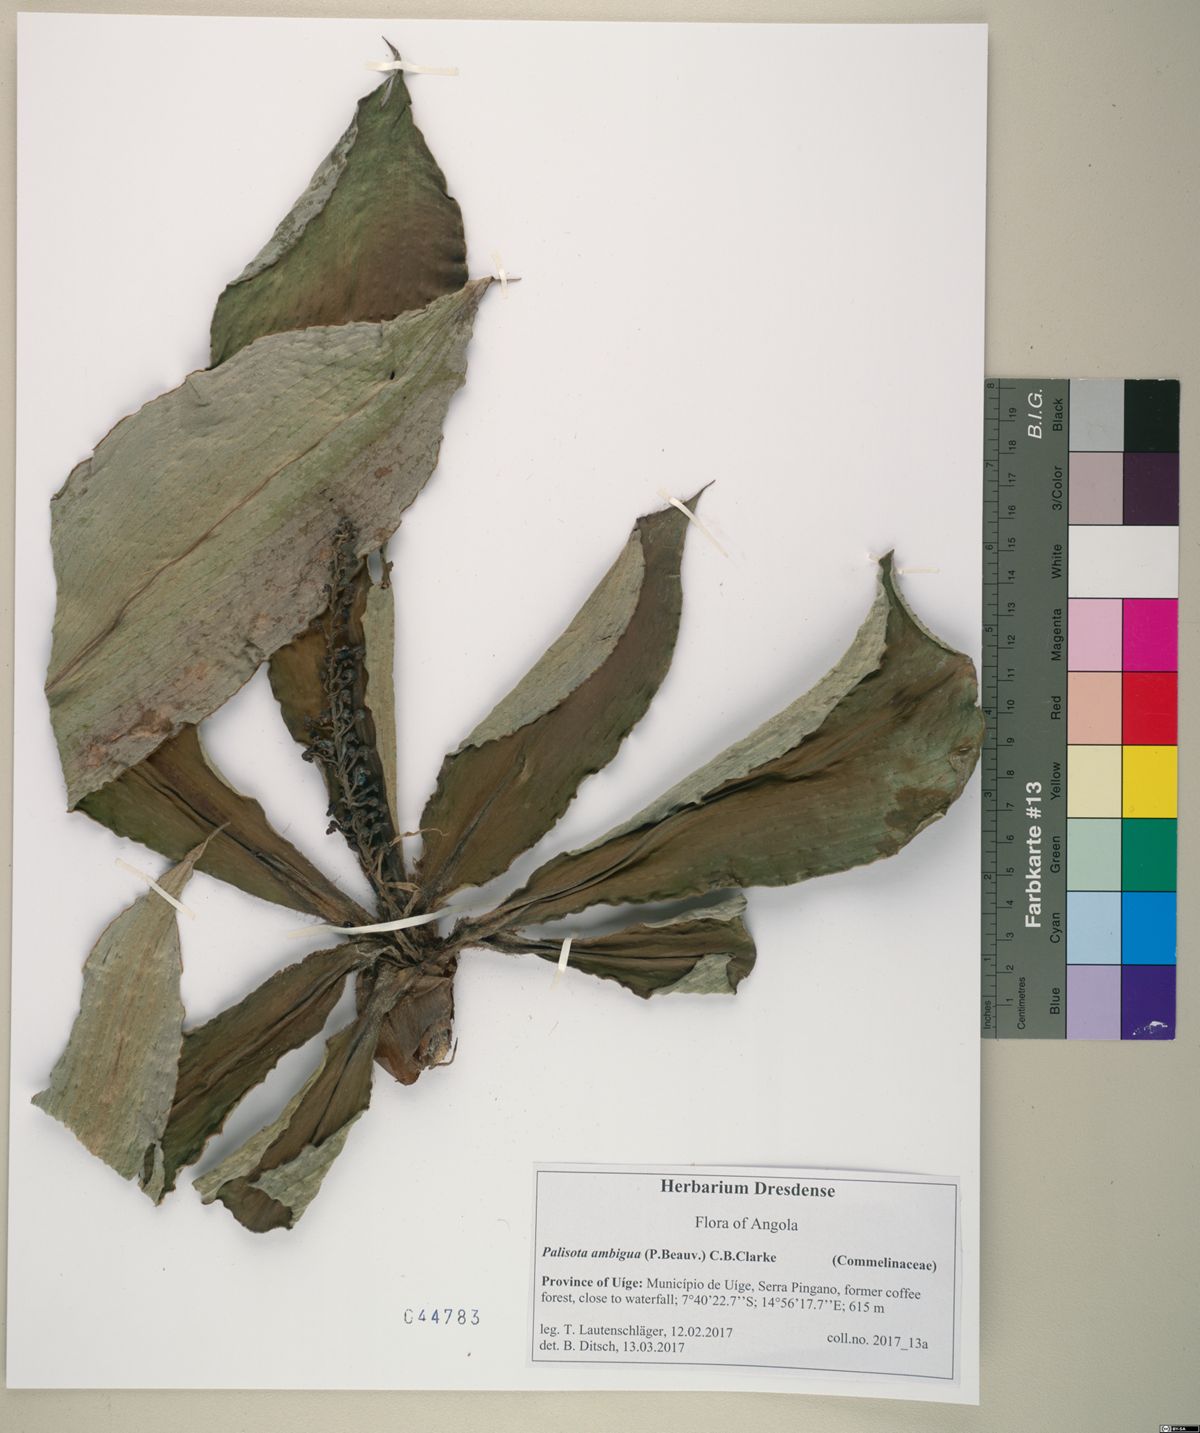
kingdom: Plantae
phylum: Tracheophyta
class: Liliopsida
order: Commelinales
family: Commelinaceae
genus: Palisota
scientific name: Palisota ambigua
